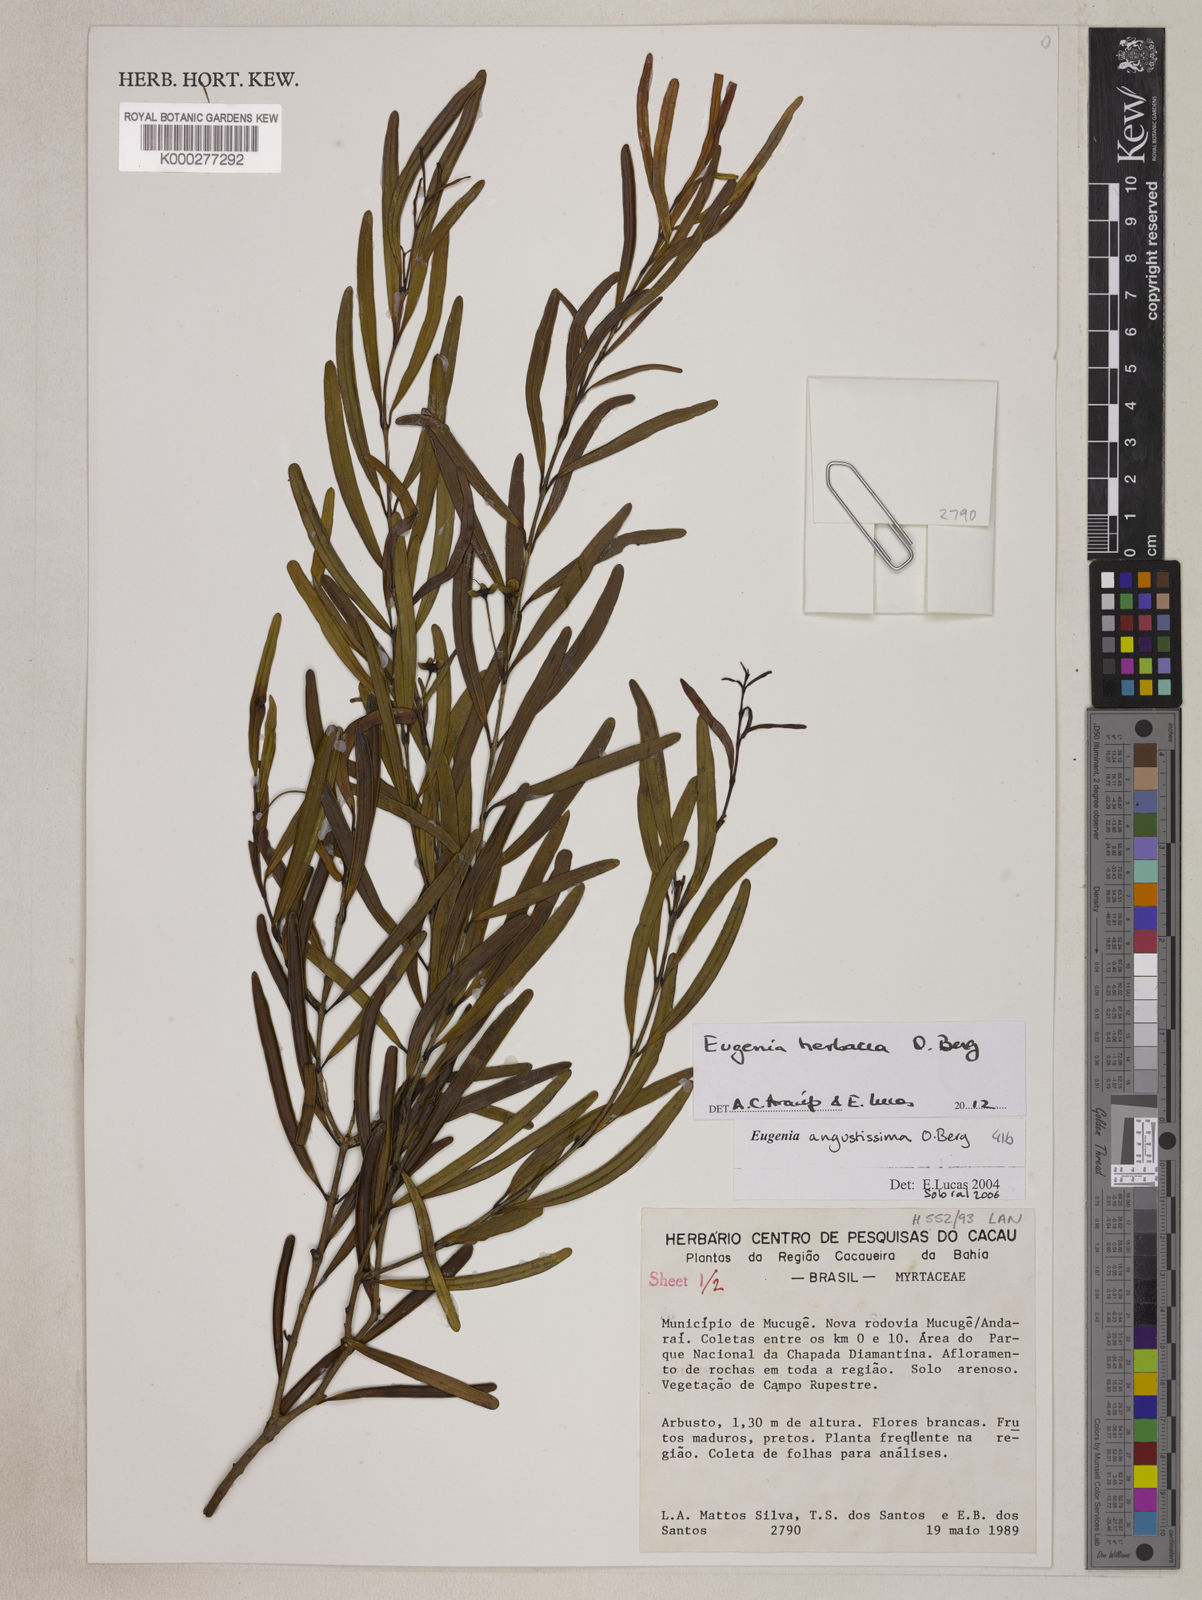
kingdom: Plantae
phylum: Tracheophyta
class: Magnoliopsida
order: Myrtales
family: Myrtaceae
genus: Eugenia
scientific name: Eugenia angustissima
